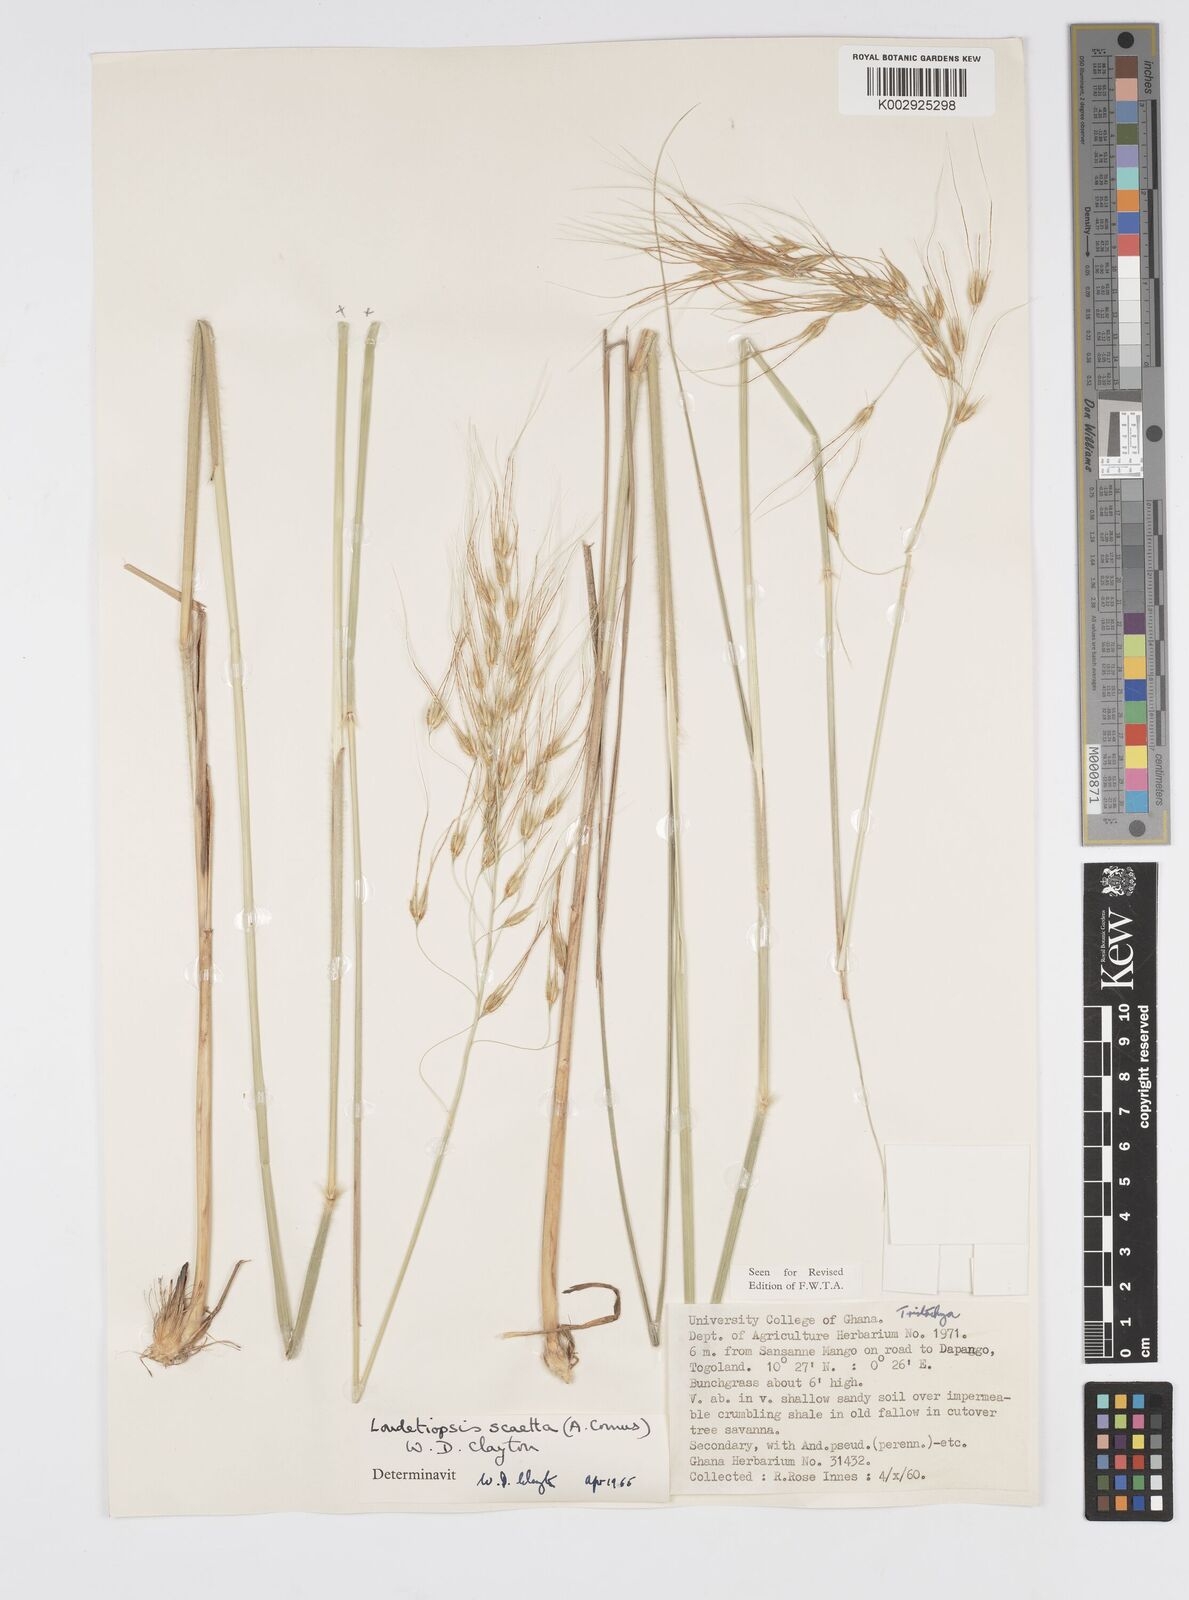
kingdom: Plantae
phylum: Tracheophyta
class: Liliopsida
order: Poales
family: Poaceae
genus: Loudetiopsis
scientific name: Loudetiopsis scaettae
